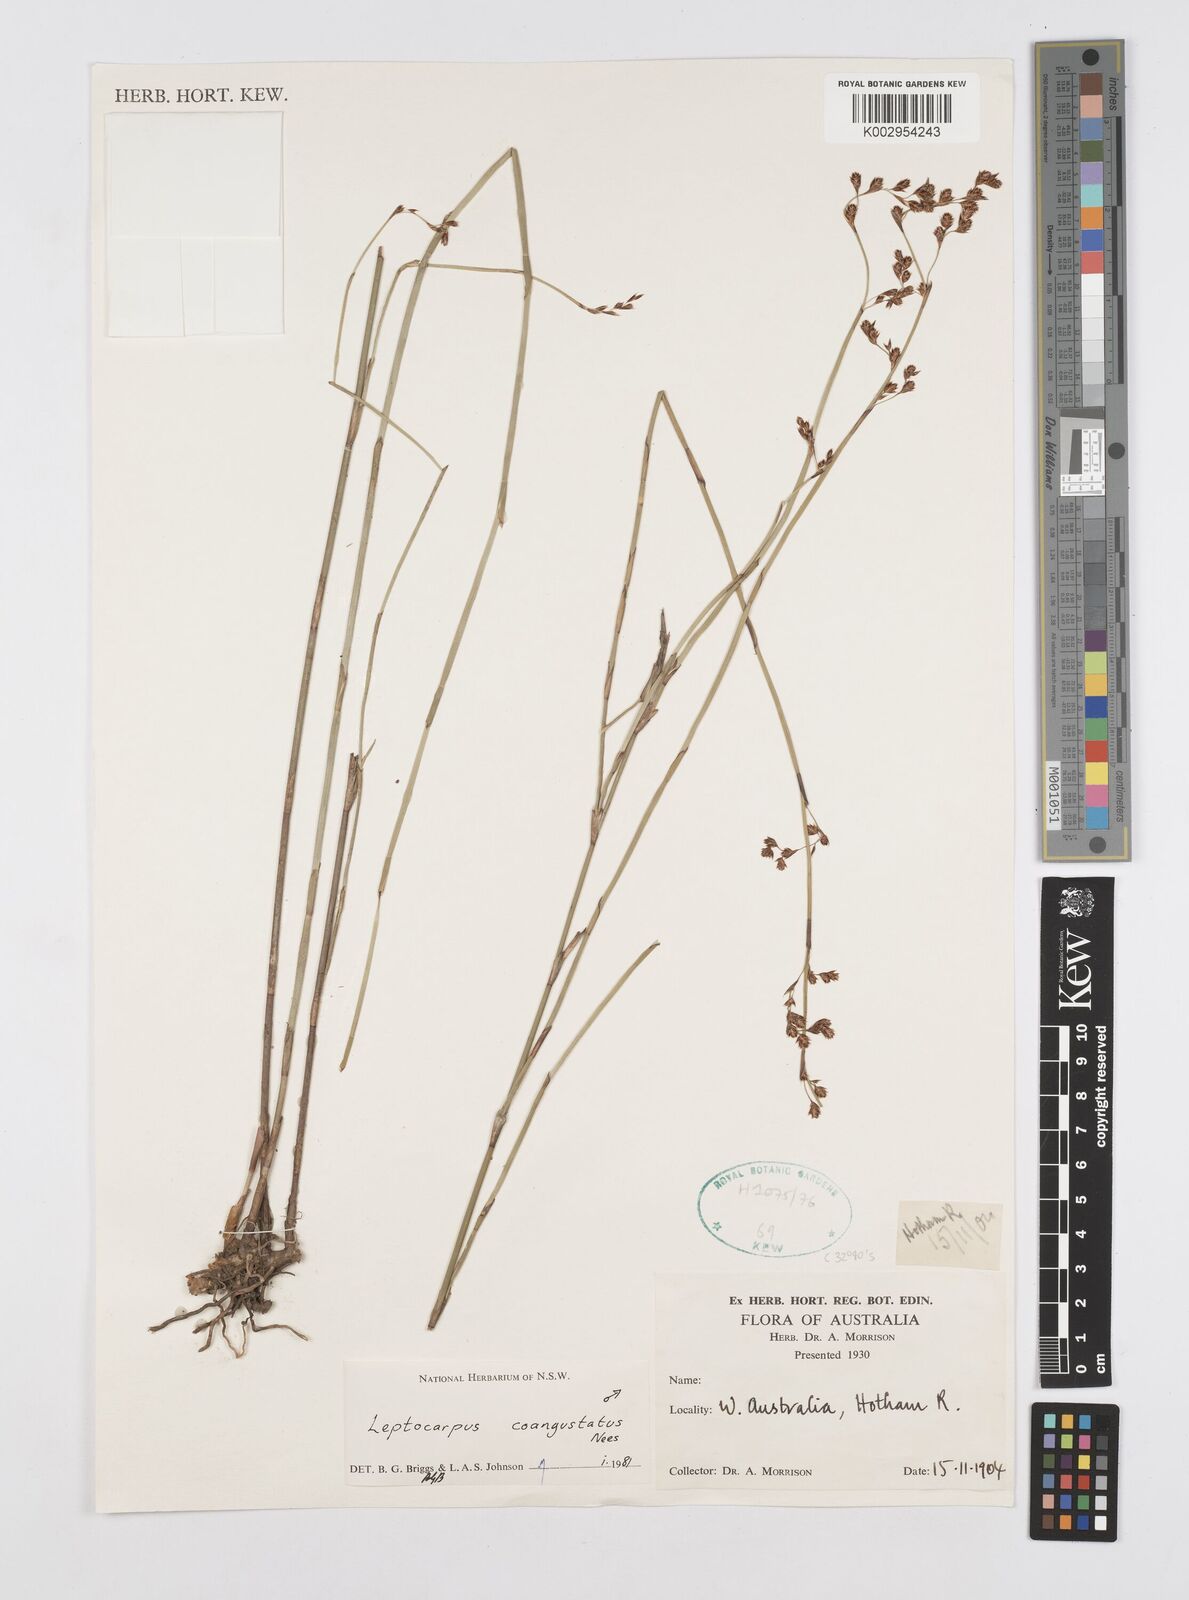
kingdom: Plantae
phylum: Tracheophyta
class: Liliopsida
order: Poales
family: Restionaceae
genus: Leptocarpus
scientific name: Leptocarpus coangustatus
